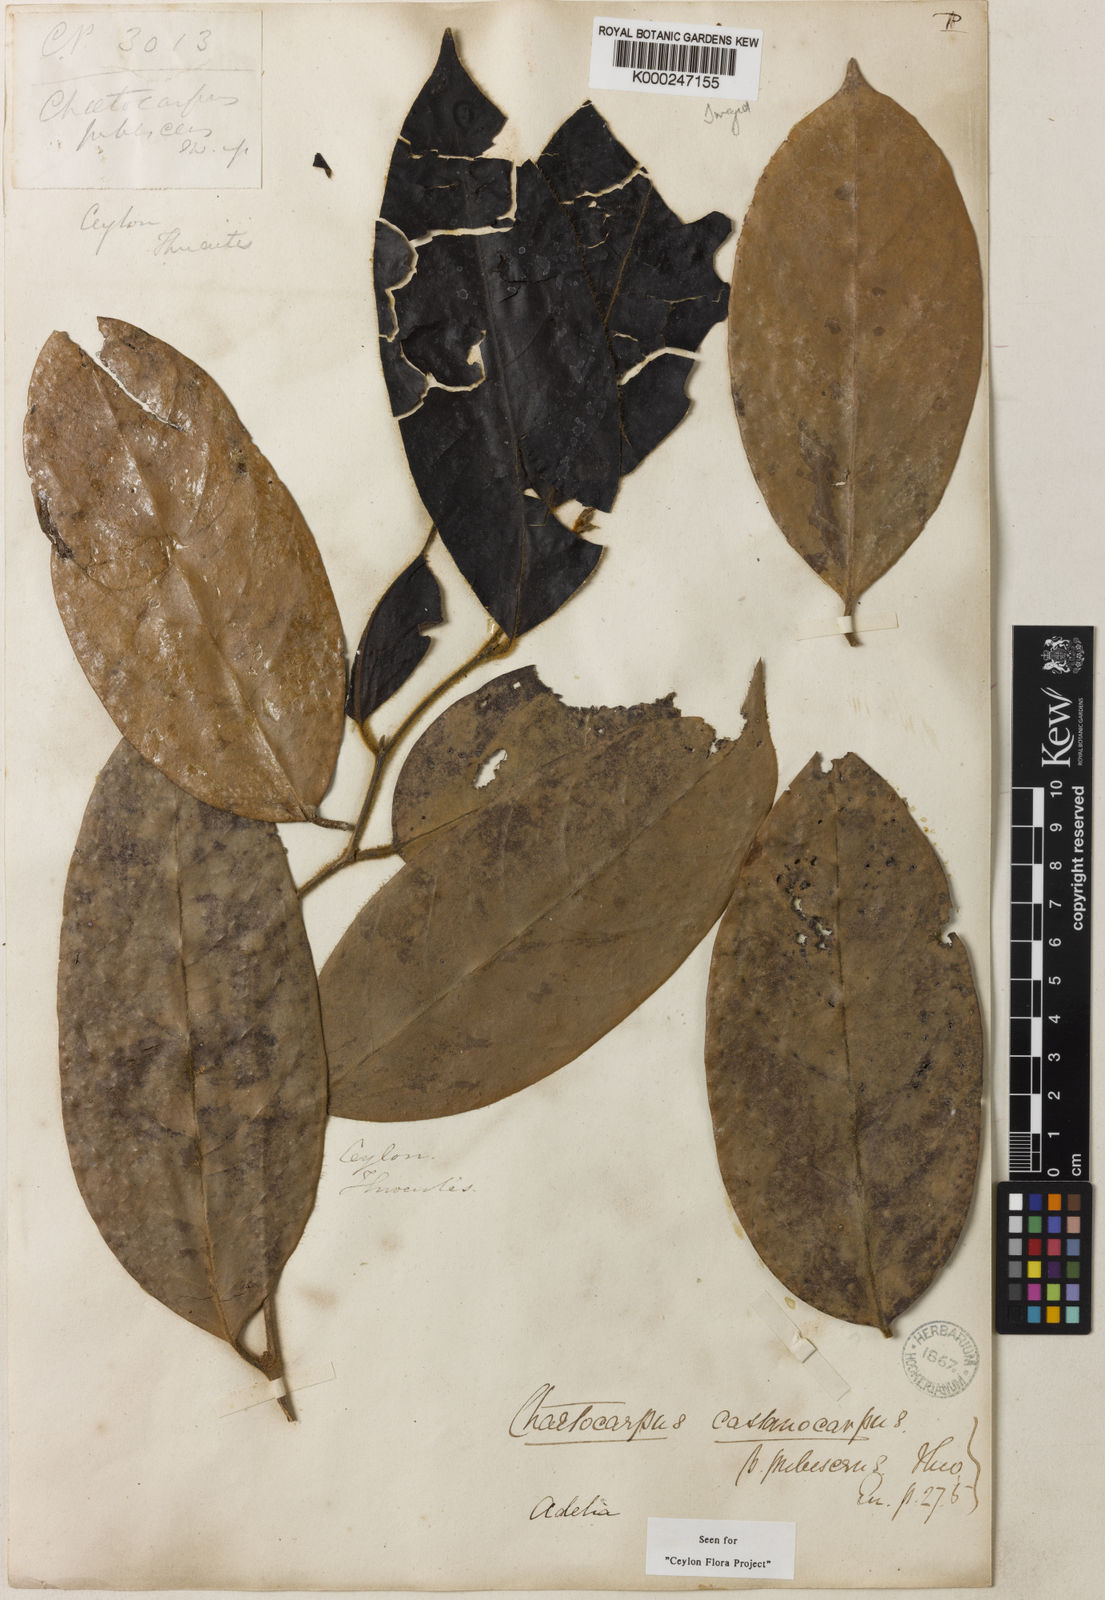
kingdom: Plantae
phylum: Tracheophyta
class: Magnoliopsida
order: Malpighiales
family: Peraceae
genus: Chaetocarpus
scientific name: Chaetocarpus pubescens
